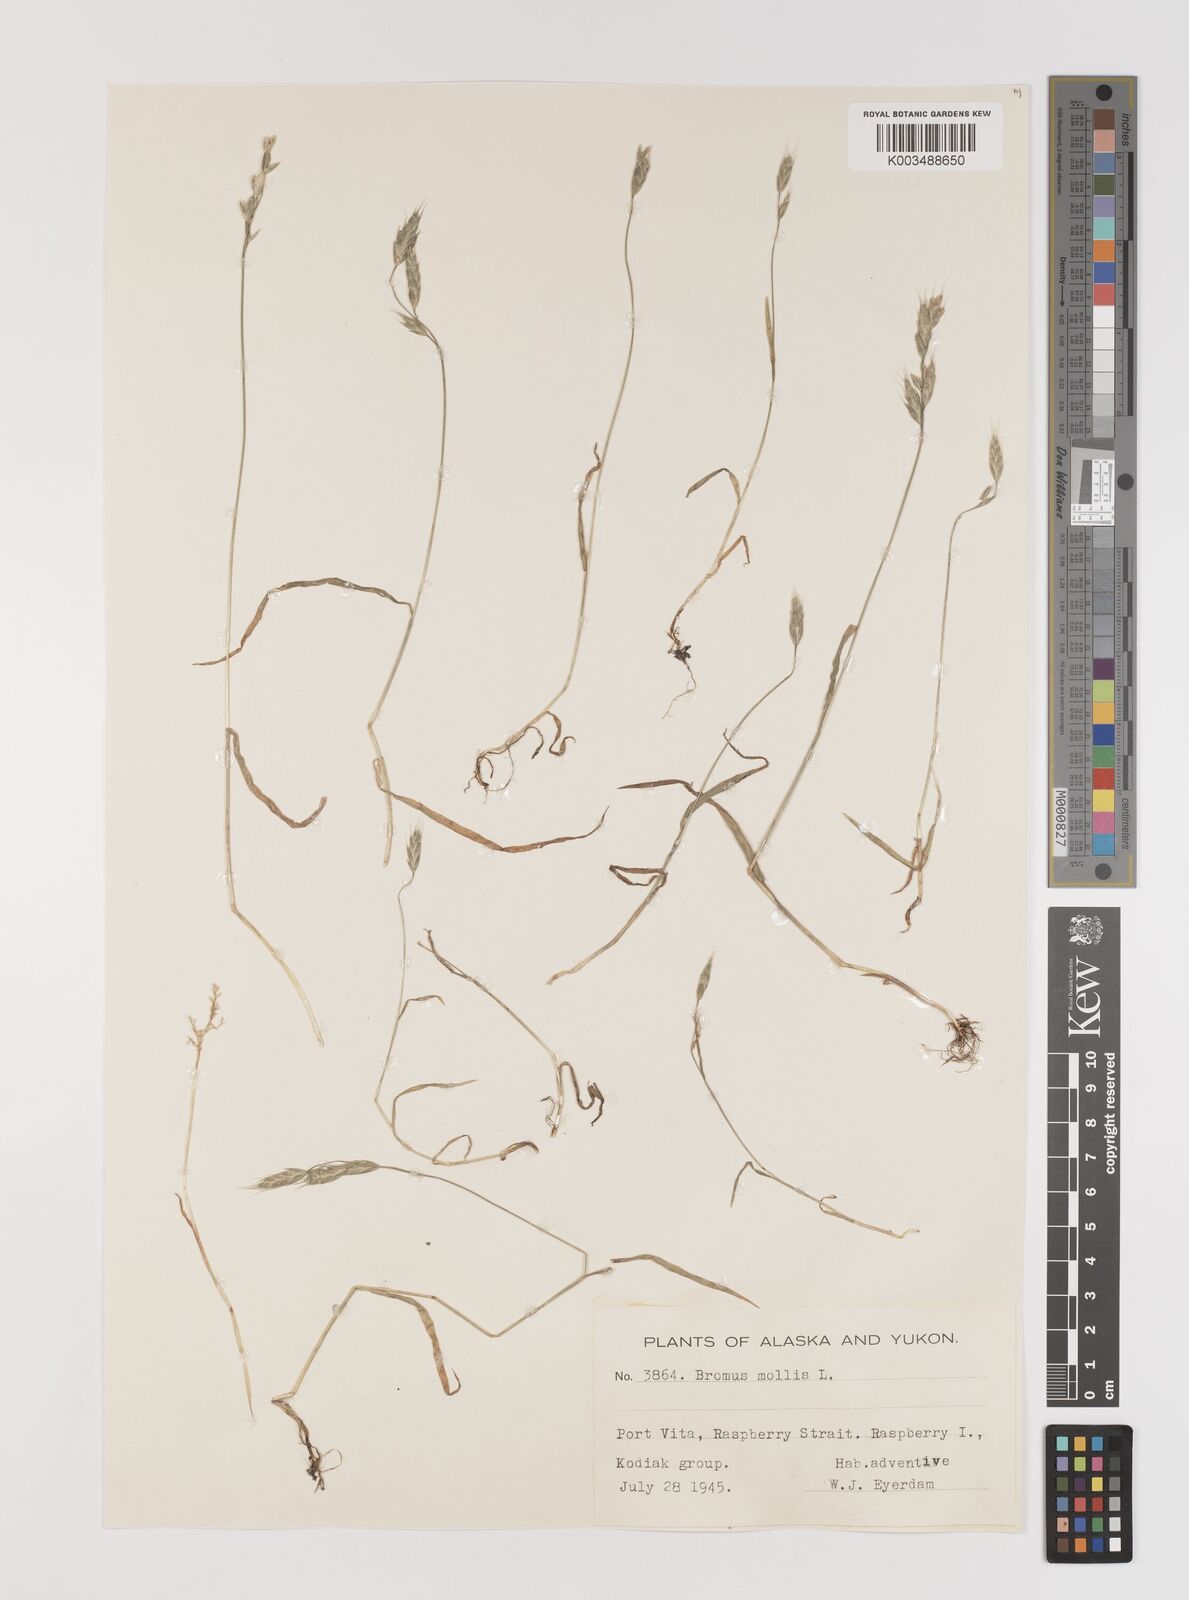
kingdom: Plantae
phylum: Tracheophyta
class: Liliopsida
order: Poales
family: Poaceae
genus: Bromus
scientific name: Bromus hordeaceus
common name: Soft brome
